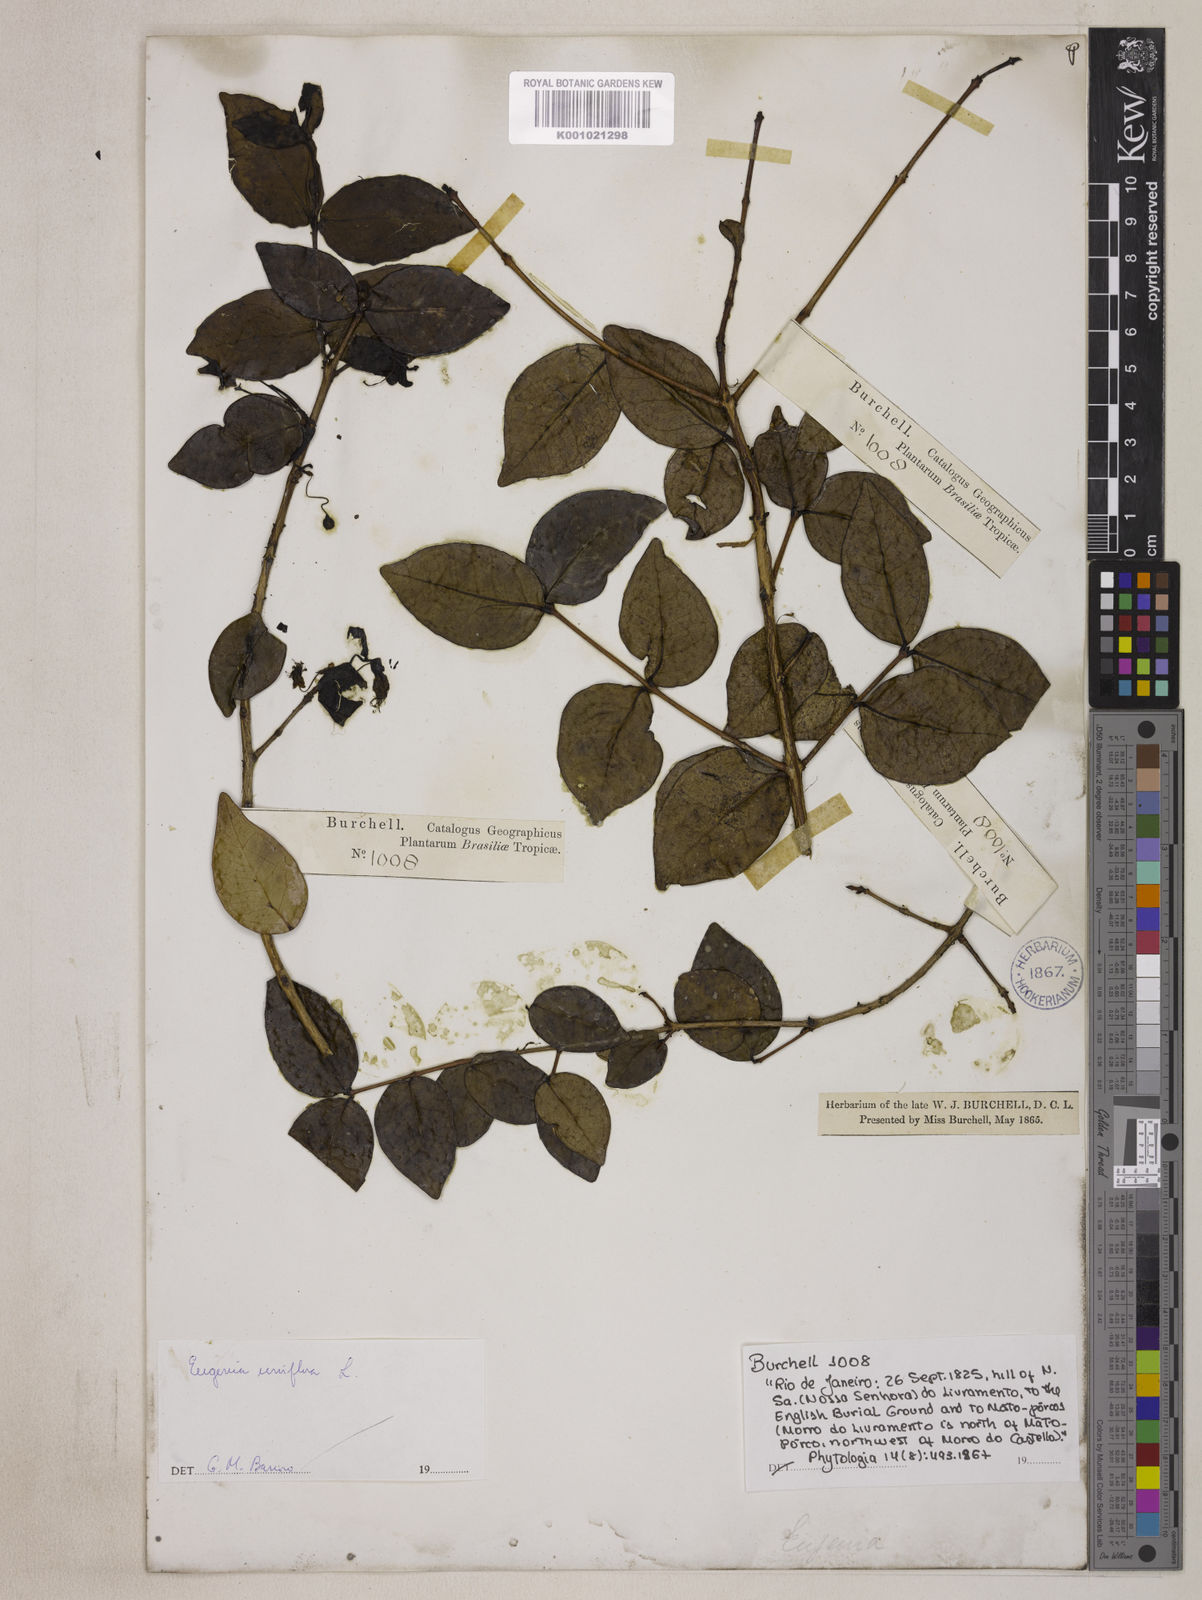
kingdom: Plantae
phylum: Tracheophyta
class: Magnoliopsida
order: Myrtales
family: Myrtaceae
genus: Eugenia
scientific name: Eugenia uniflora
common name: Surinam cherry
